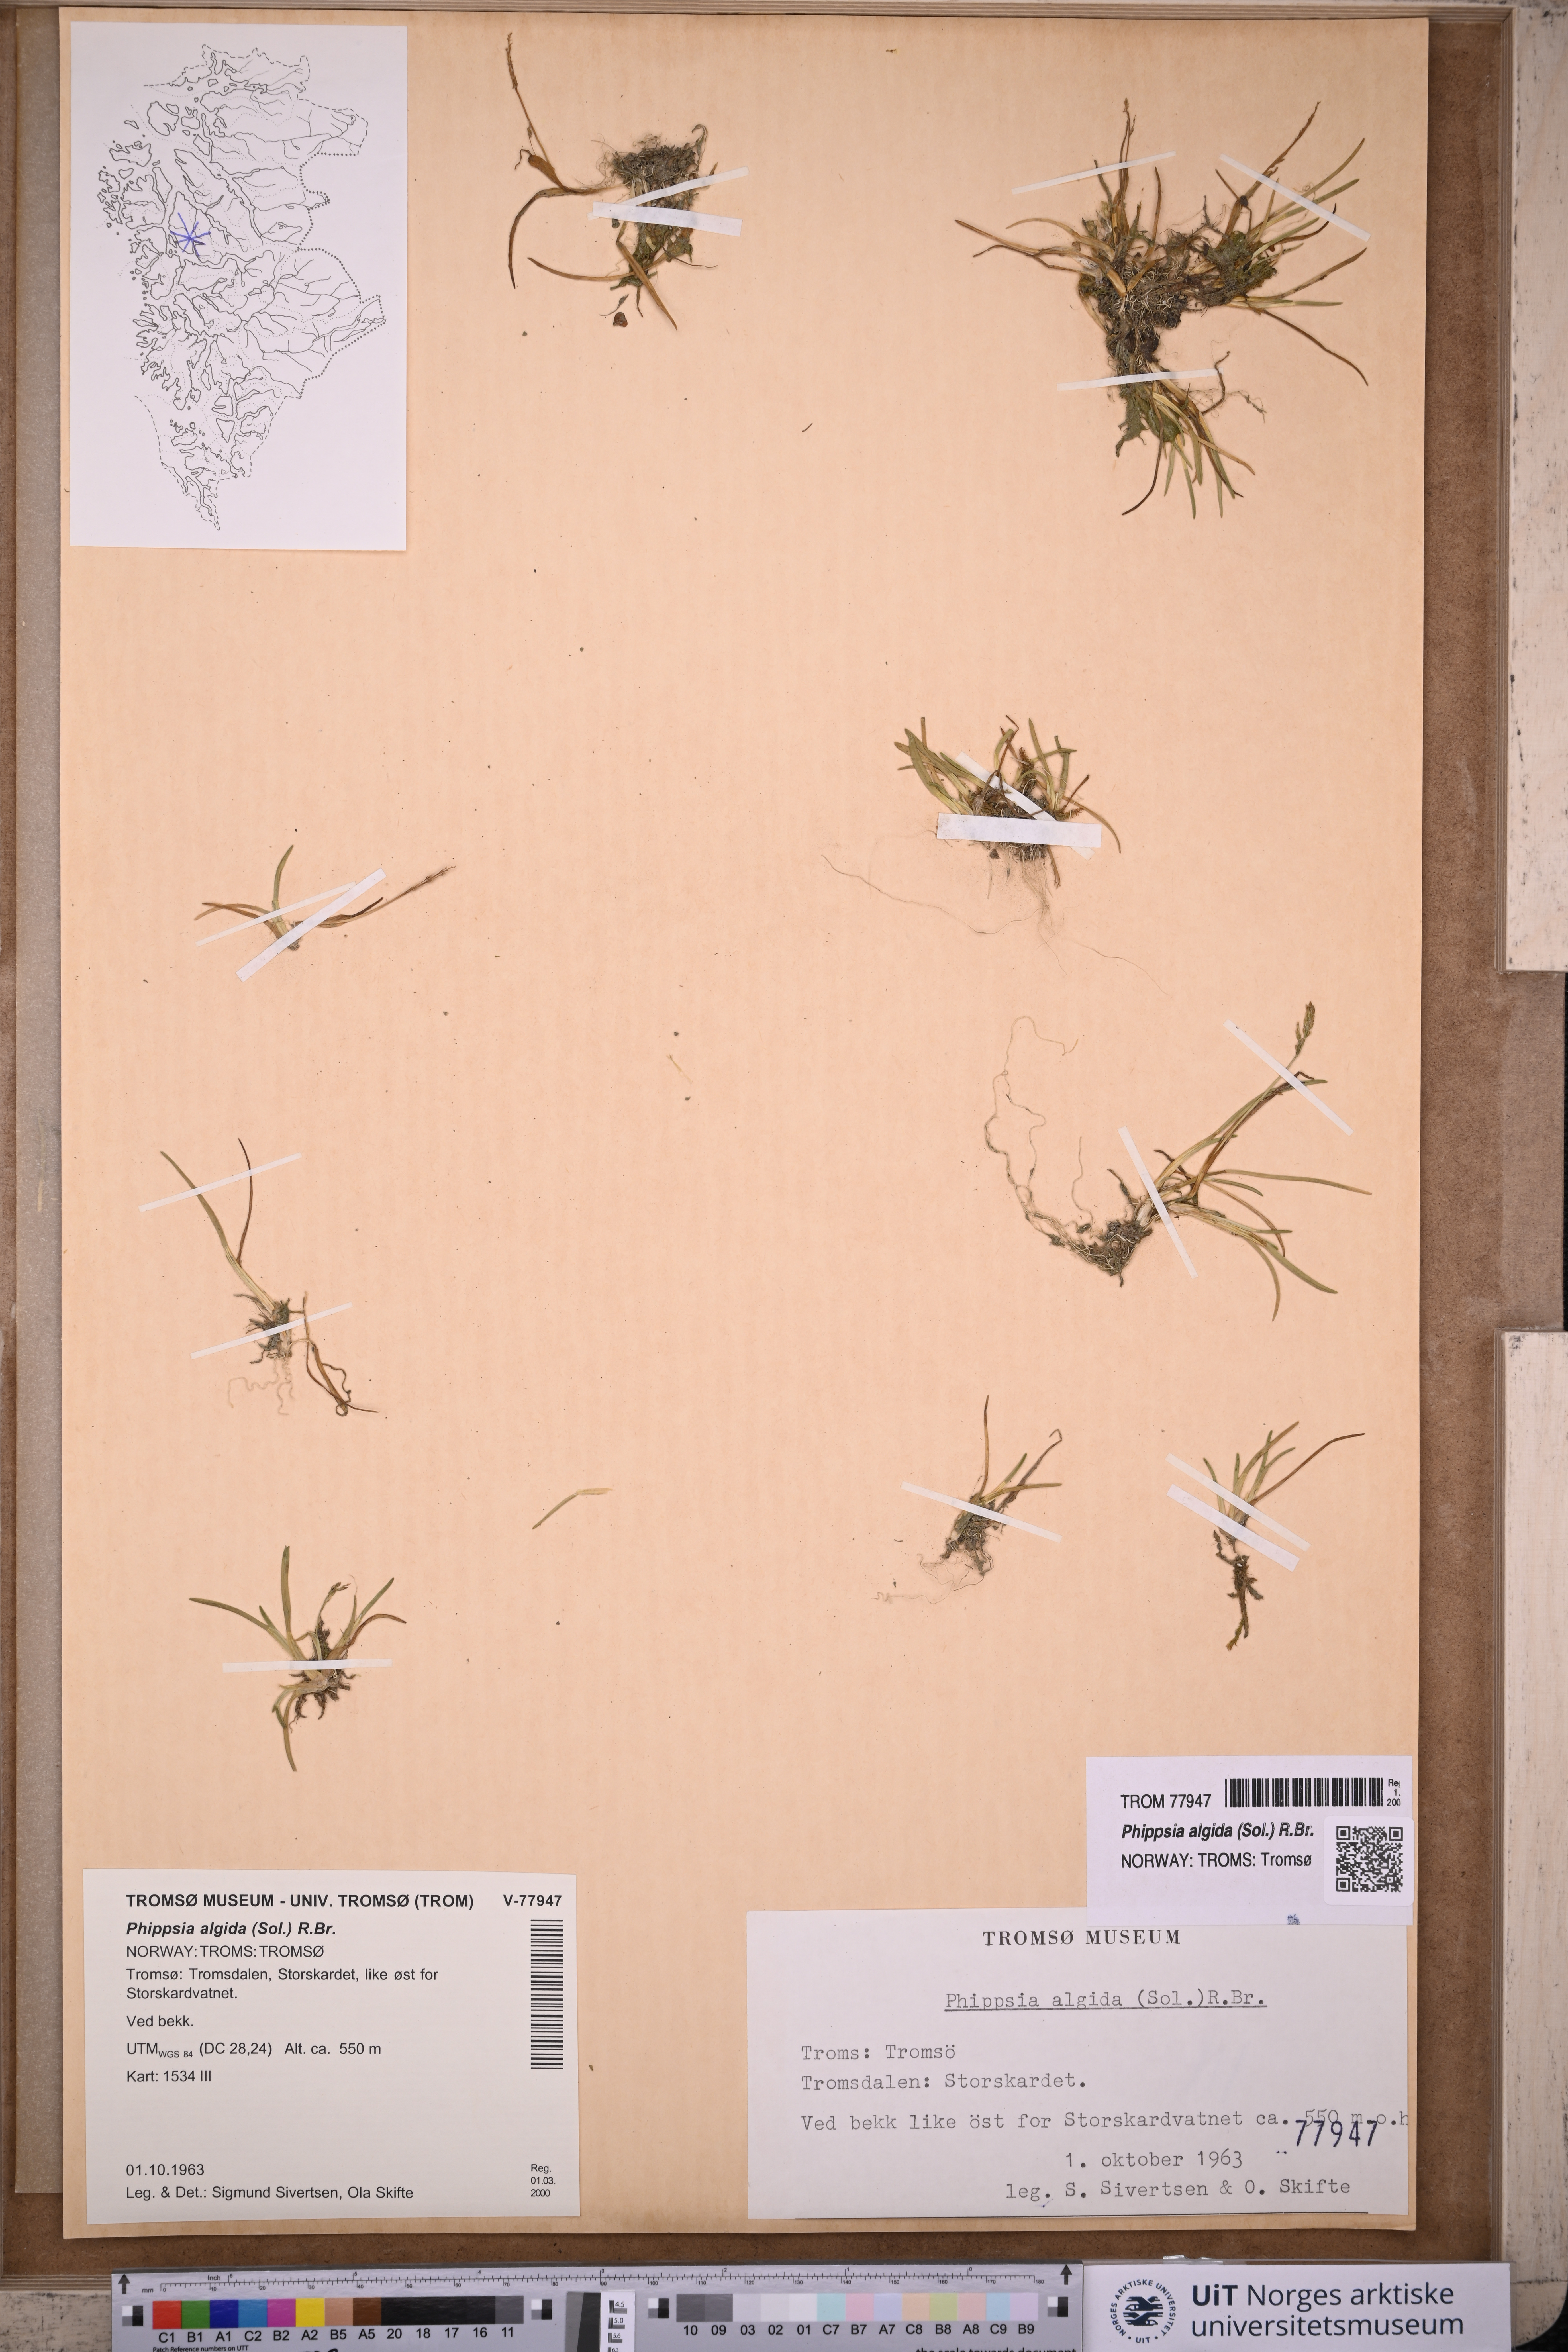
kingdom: Plantae
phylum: Tracheophyta
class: Liliopsida
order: Poales
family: Poaceae
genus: Phippsia
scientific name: Phippsia algida
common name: Ice grass
